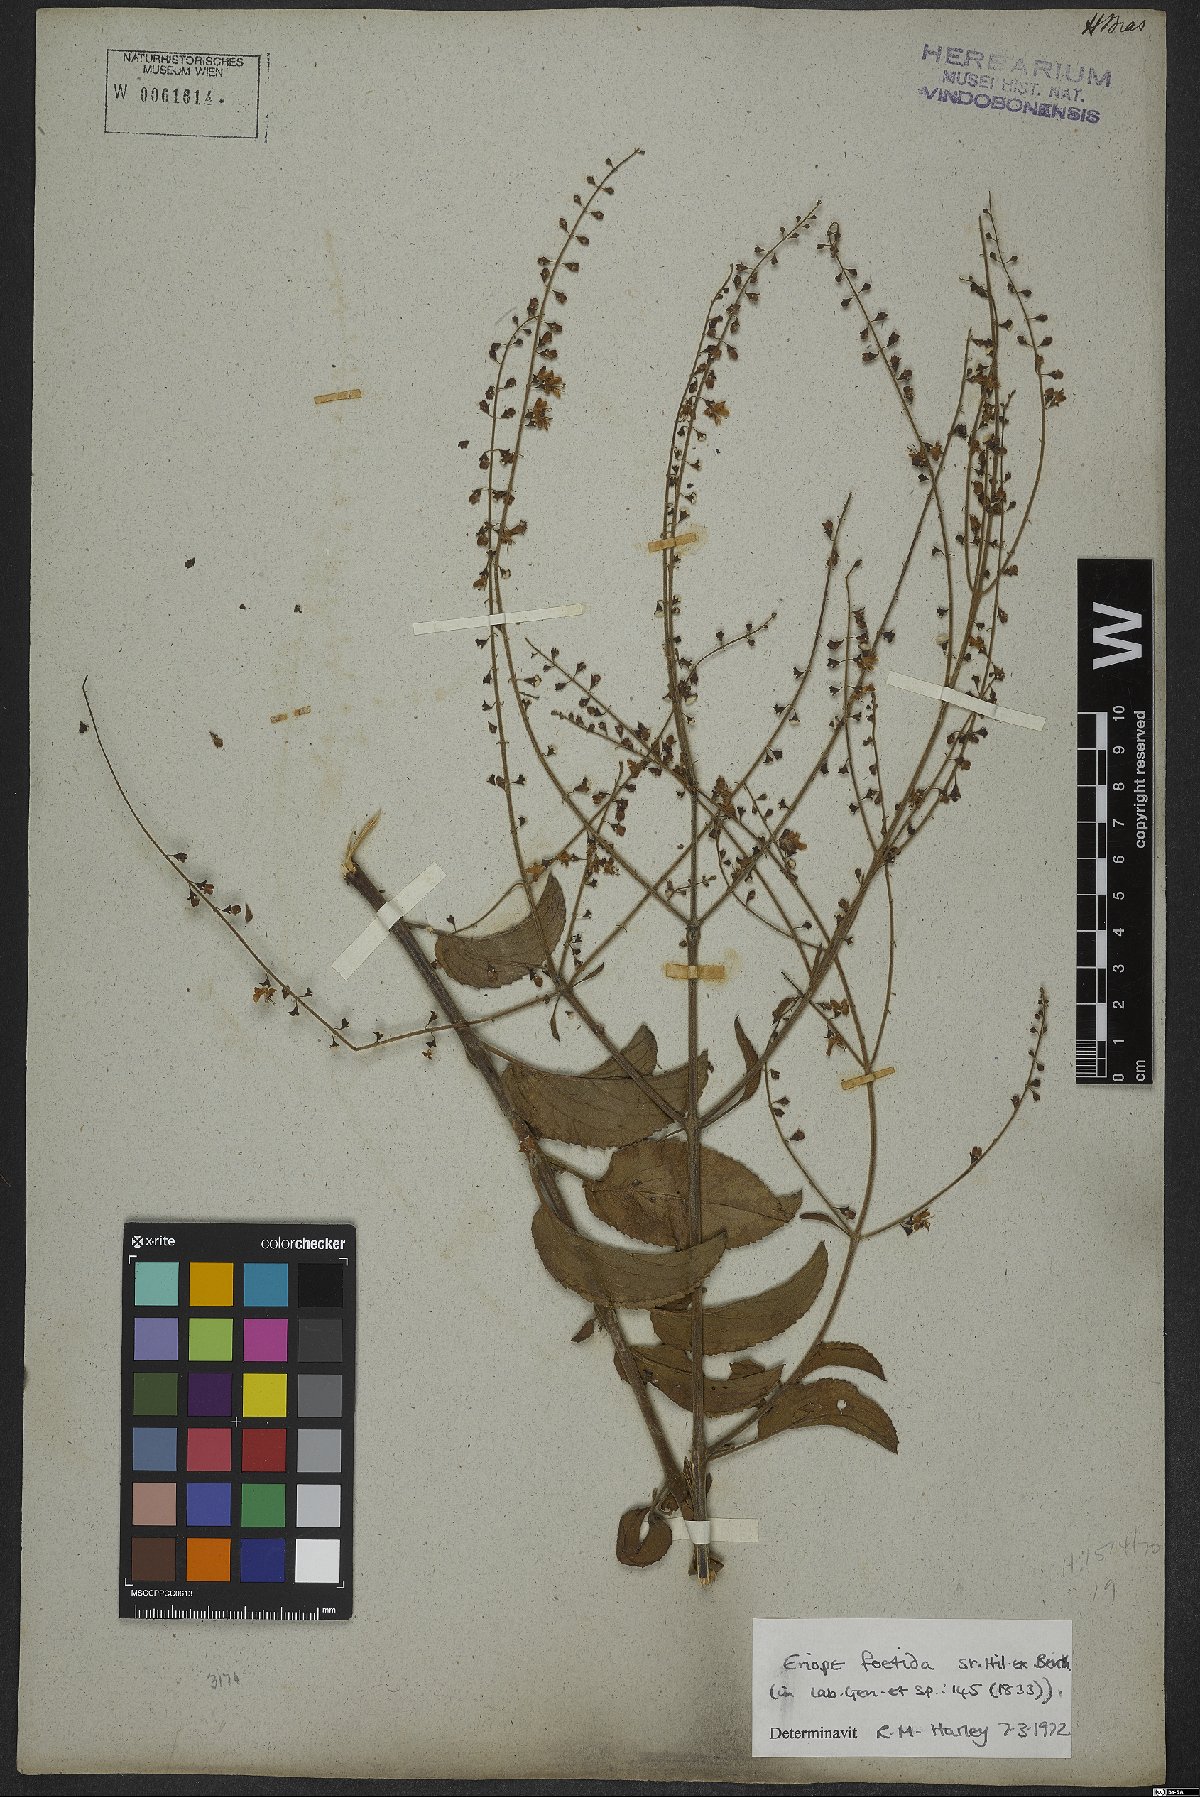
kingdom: Plantae
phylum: Tracheophyta
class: Magnoliopsida
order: Lamiales
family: Lamiaceae
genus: Eriope
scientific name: Eriope foetida
